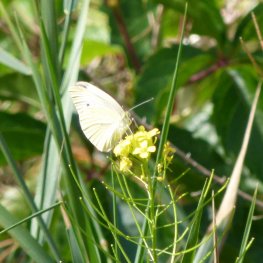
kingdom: Animalia
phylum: Arthropoda
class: Insecta
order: Lepidoptera
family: Pieridae
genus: Pieris
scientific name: Pieris rapae
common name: Cabbage White
